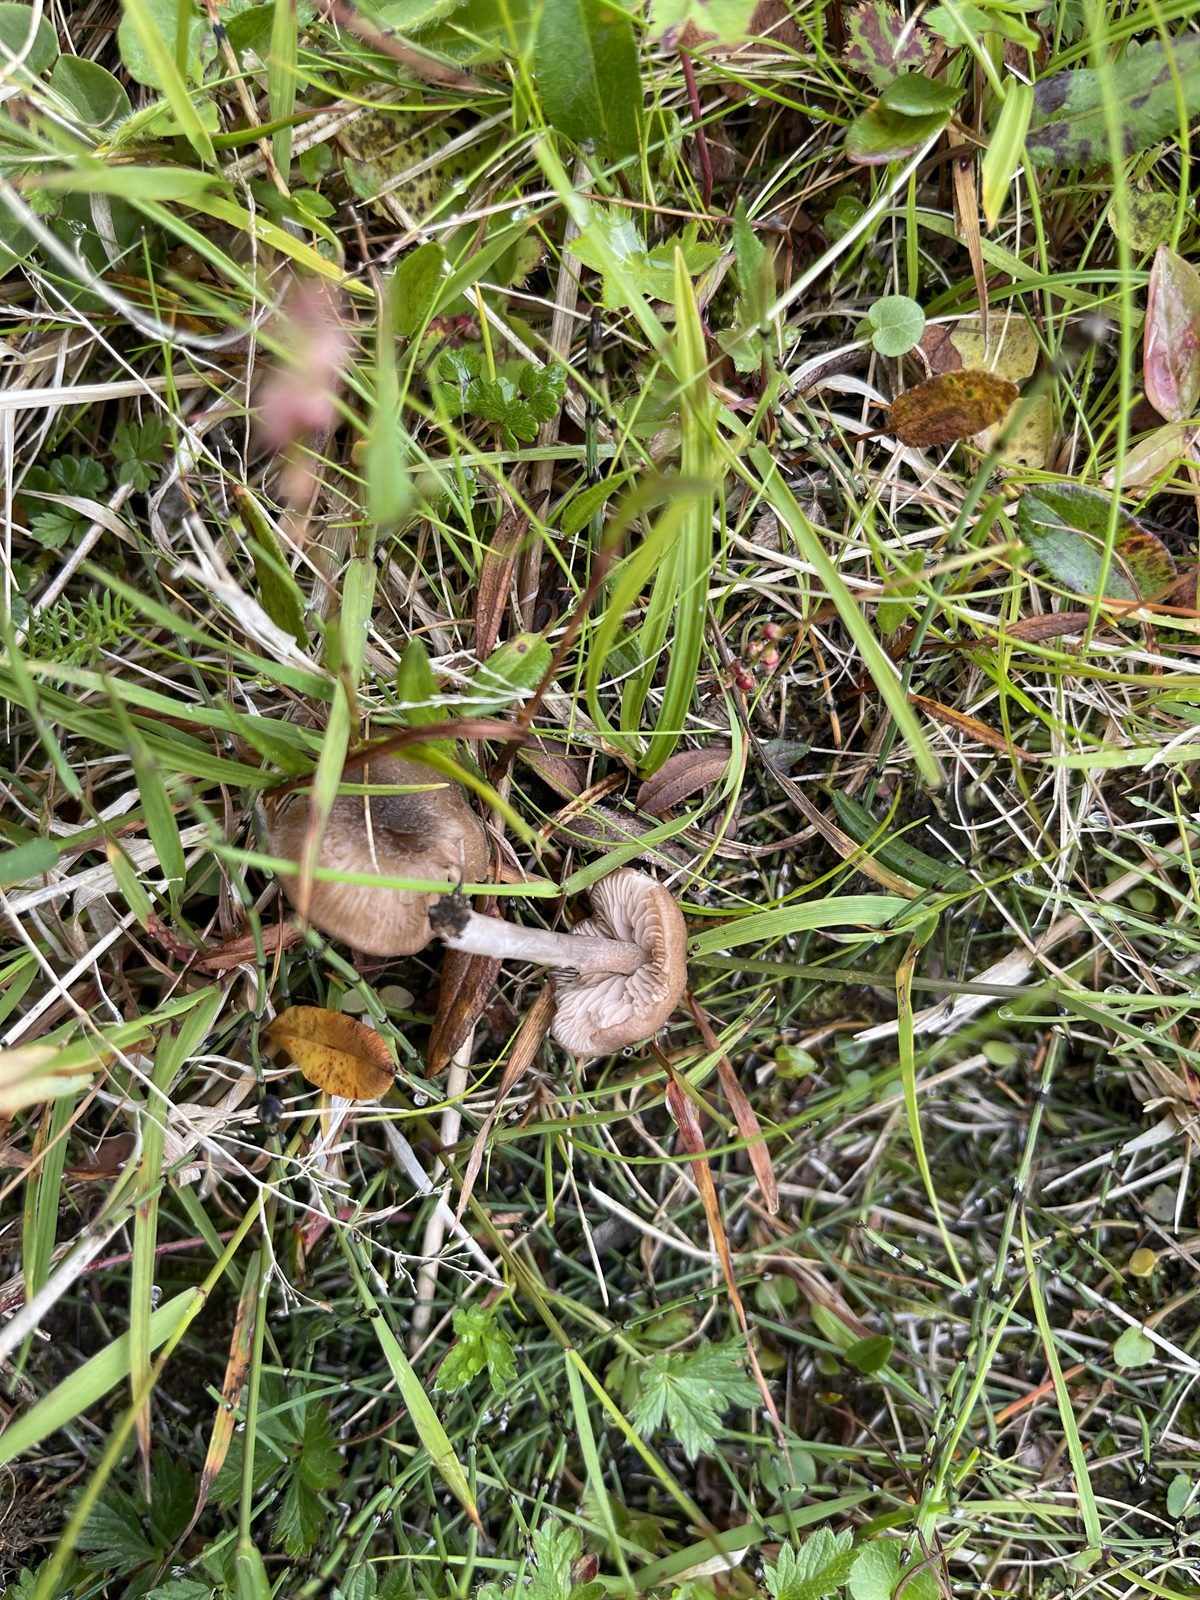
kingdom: Fungi
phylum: Basidiomycota
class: Agaricomycetes
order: Agaricales
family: Entolomataceae
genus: Entoloma
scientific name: Entoloma griseocyaneum
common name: Felted pinkgill
